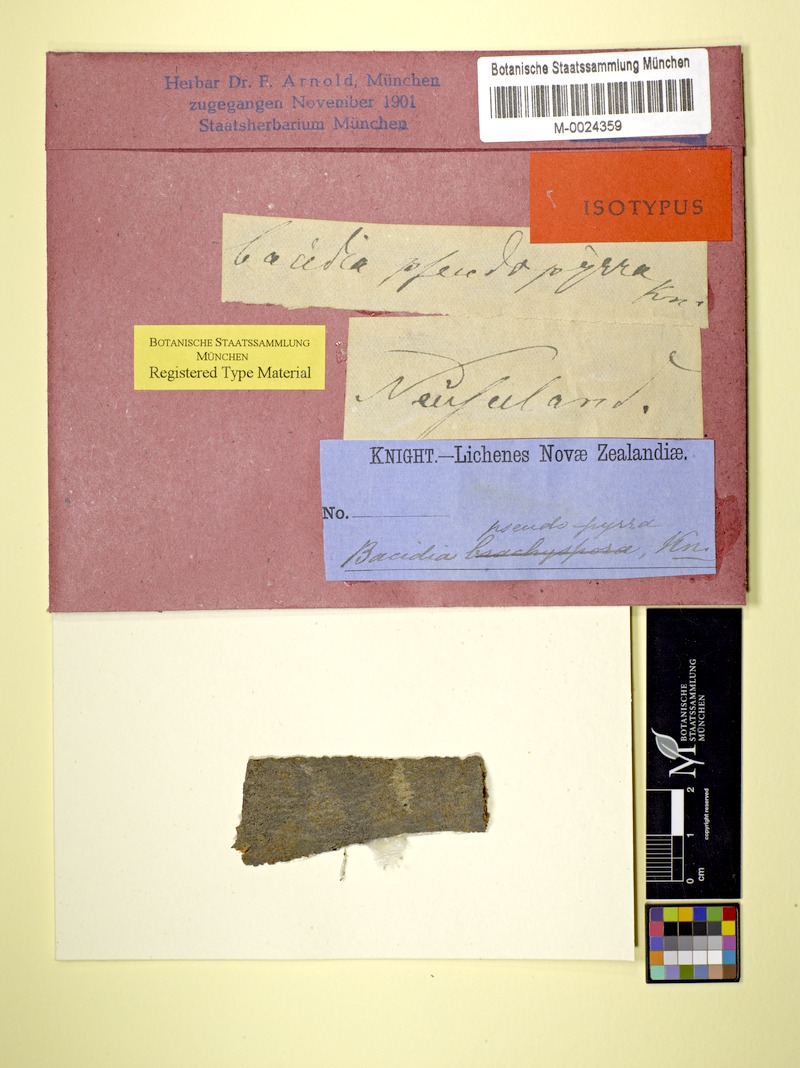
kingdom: Fungi
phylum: Ascomycota
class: Lecanoromycetes
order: Lecanorales
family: Ramalinaceae
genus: Bacidia
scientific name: Bacidia superula
